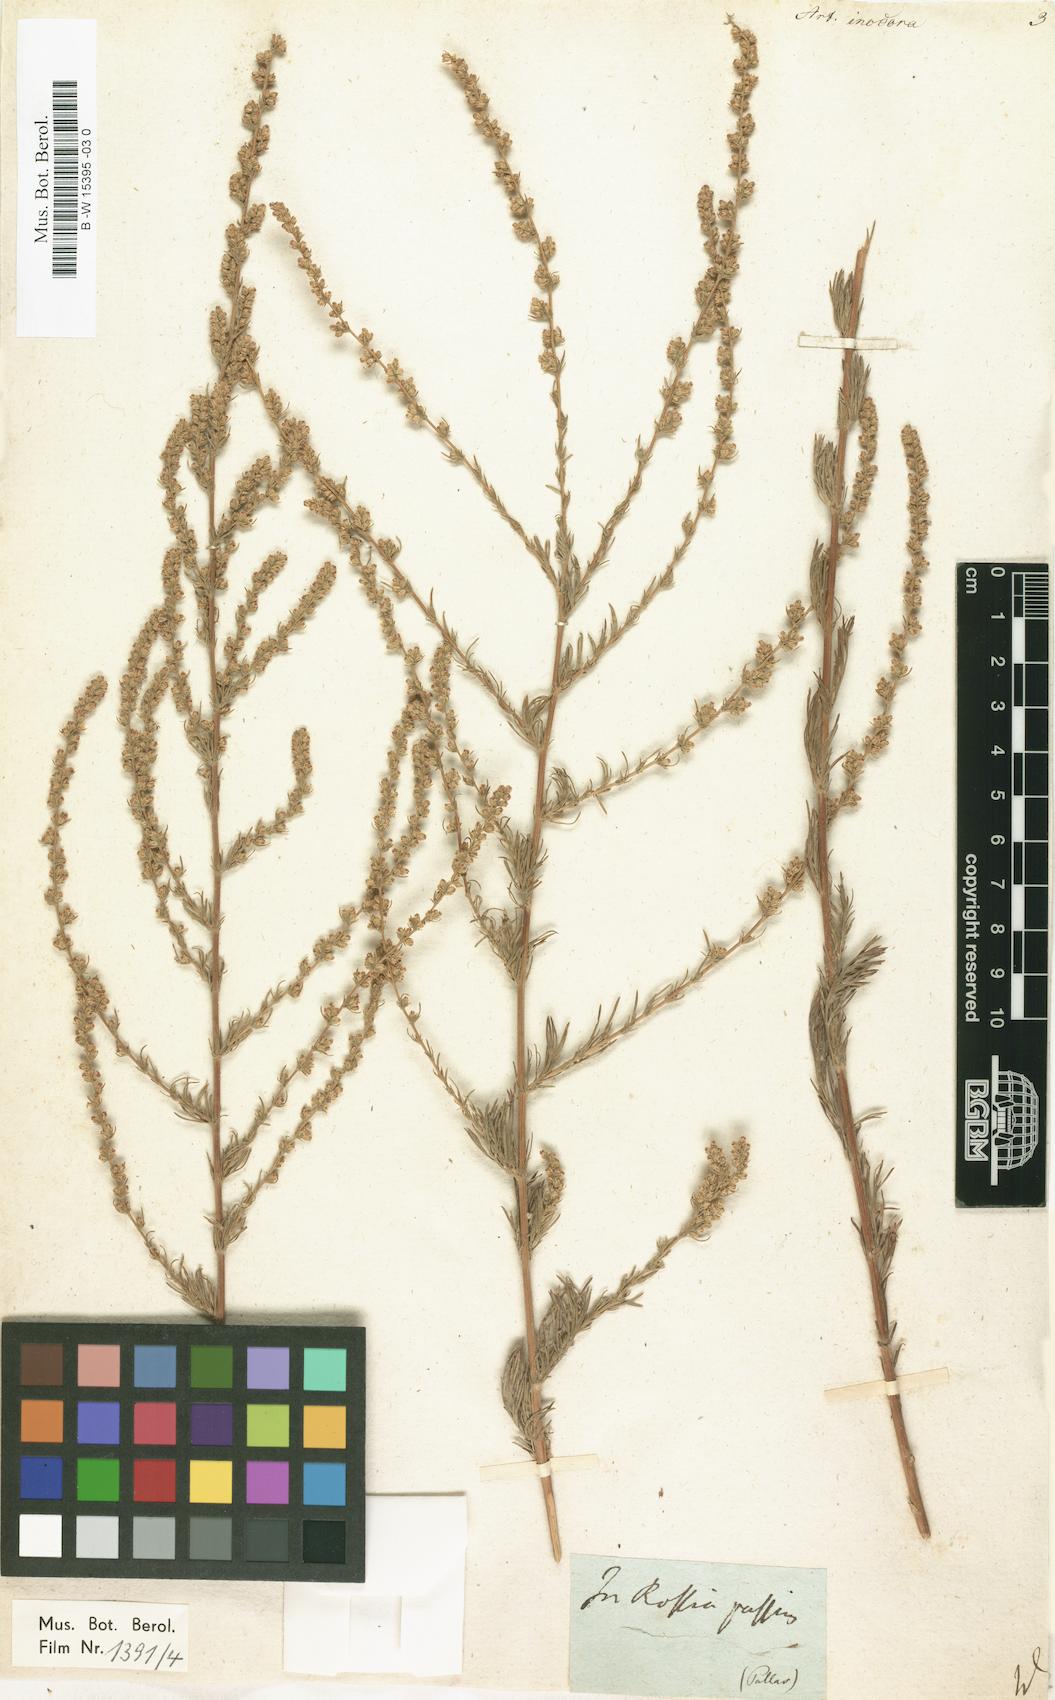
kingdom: Plantae
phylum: Tracheophyta
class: Magnoliopsida
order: Asterales
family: Asteraceae
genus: Artemisia
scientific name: Artemisia dracunculus
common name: Tarragon
